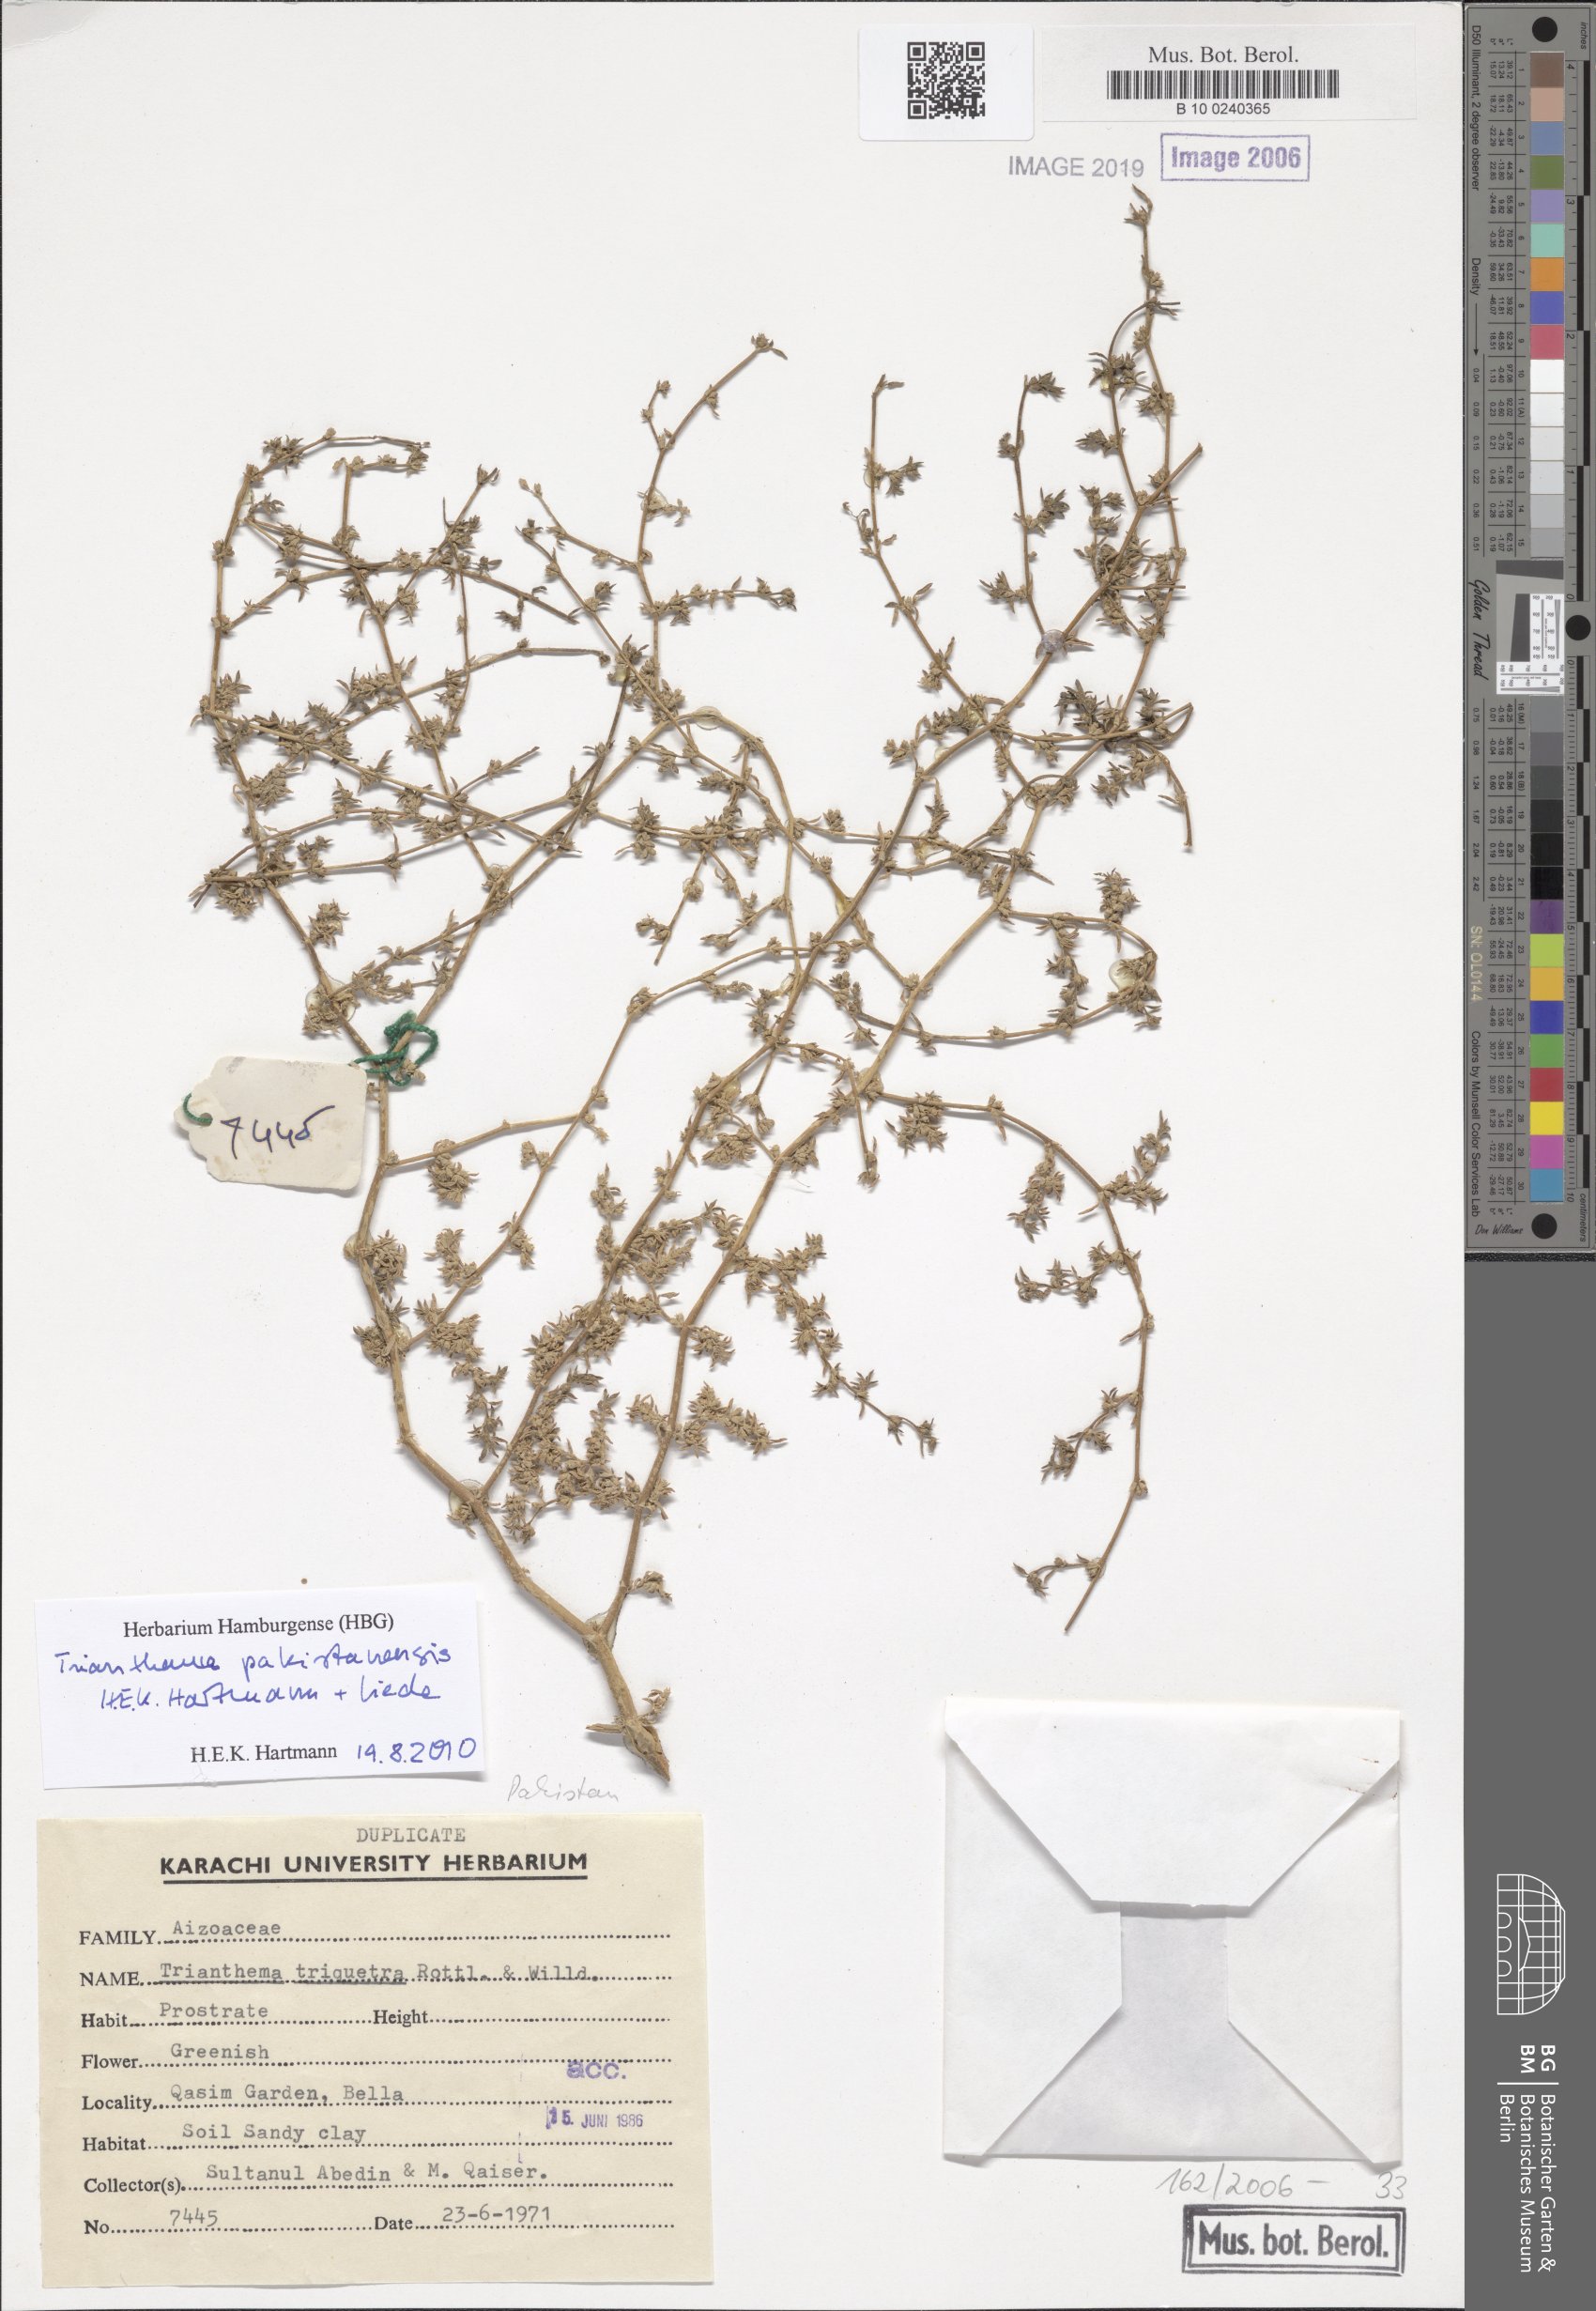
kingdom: Plantae
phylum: Tracheophyta
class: Magnoliopsida
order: Caryophyllales
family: Aizoaceae
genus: Trianthema
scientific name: Trianthema triquetrum
